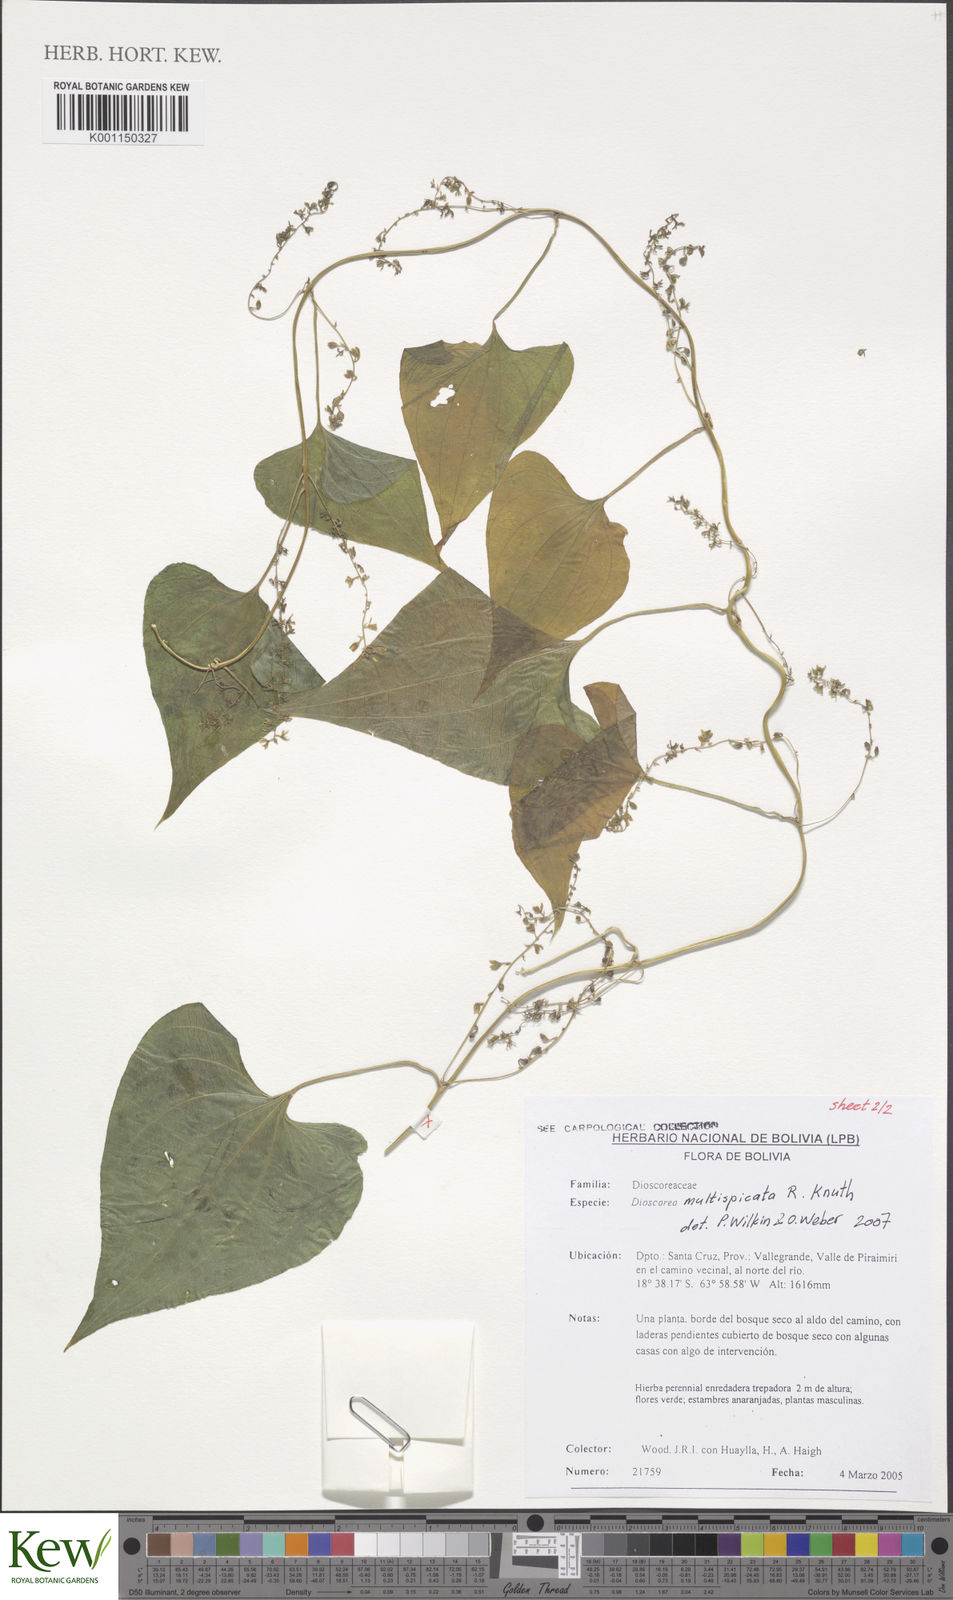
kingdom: Plantae
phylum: Tracheophyta
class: Liliopsida
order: Dioscoreales
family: Dioscoreaceae
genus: Dioscorea
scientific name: Dioscorea multispicata
